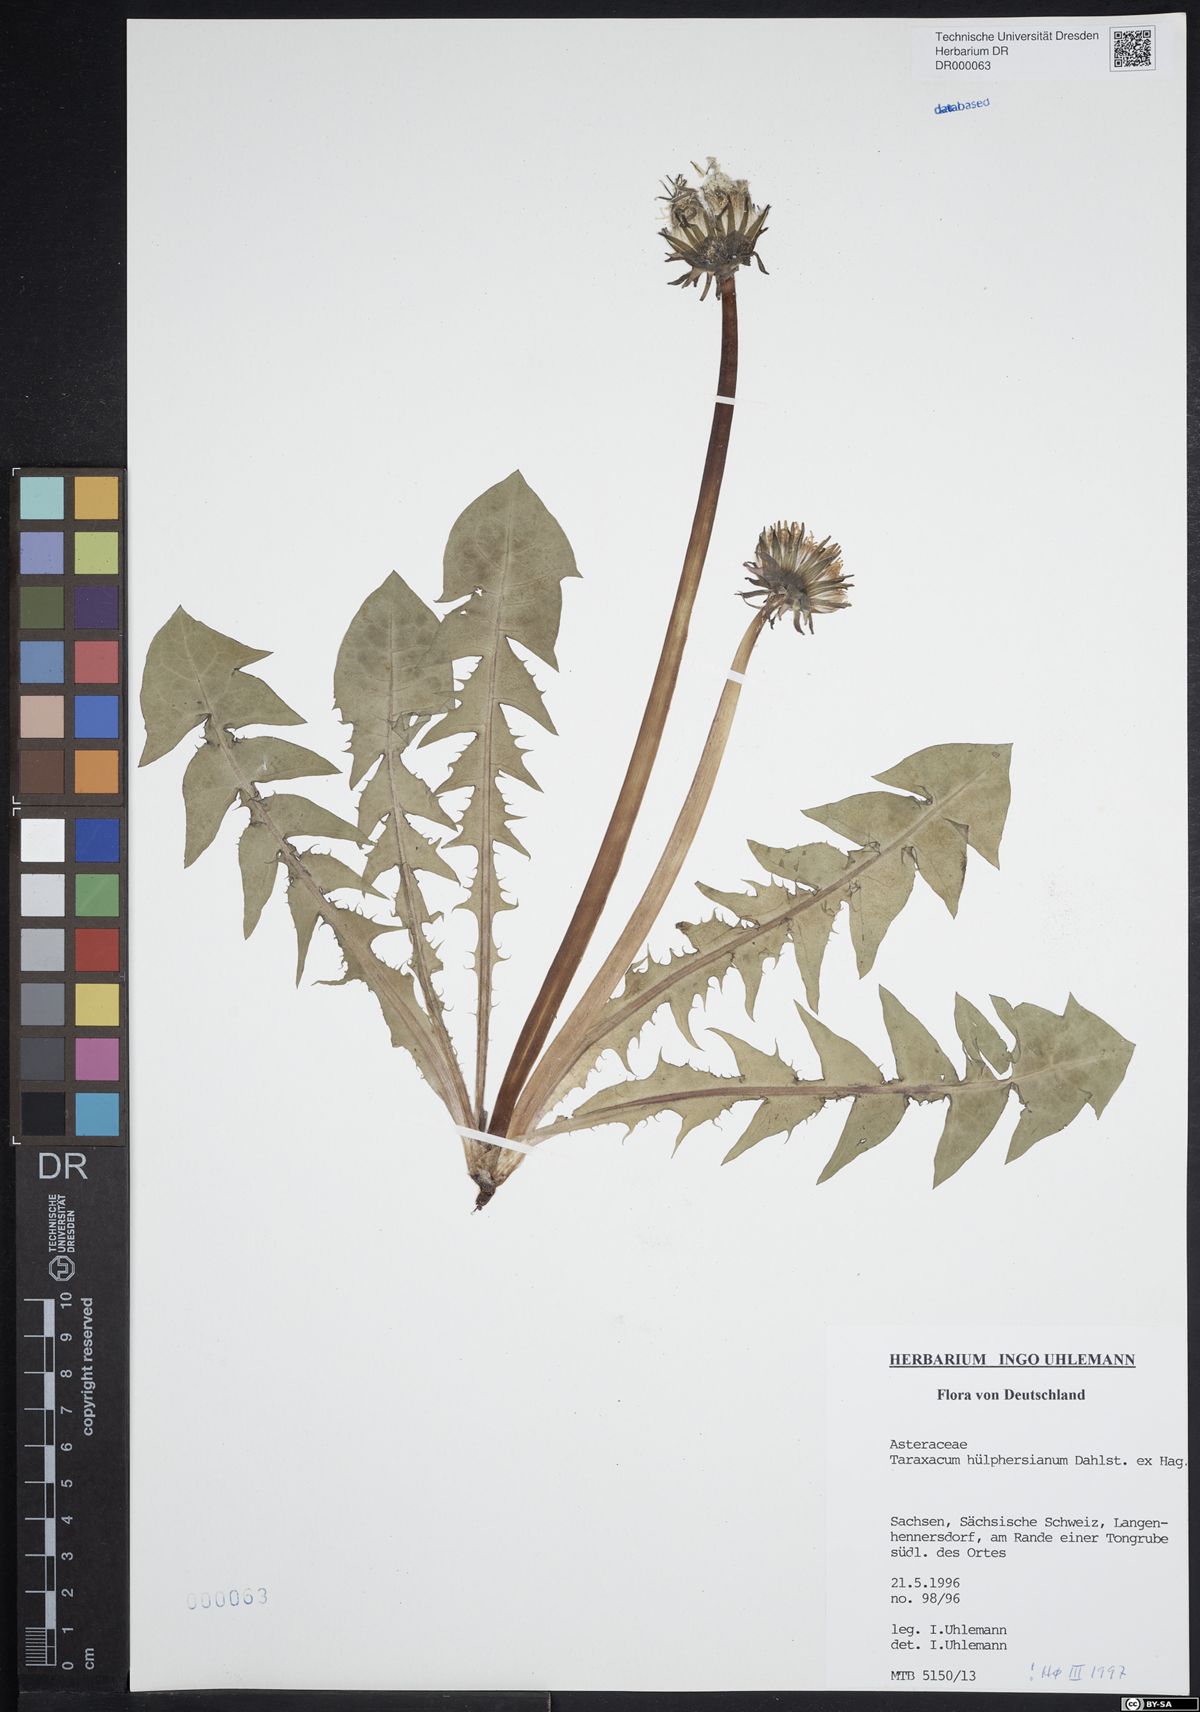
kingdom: Plantae
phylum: Tracheophyta
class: Magnoliopsida
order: Asterales
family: Asteraceae
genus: Taraxacum
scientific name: Taraxacum huelphersianum
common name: Hülphers's dandelion
